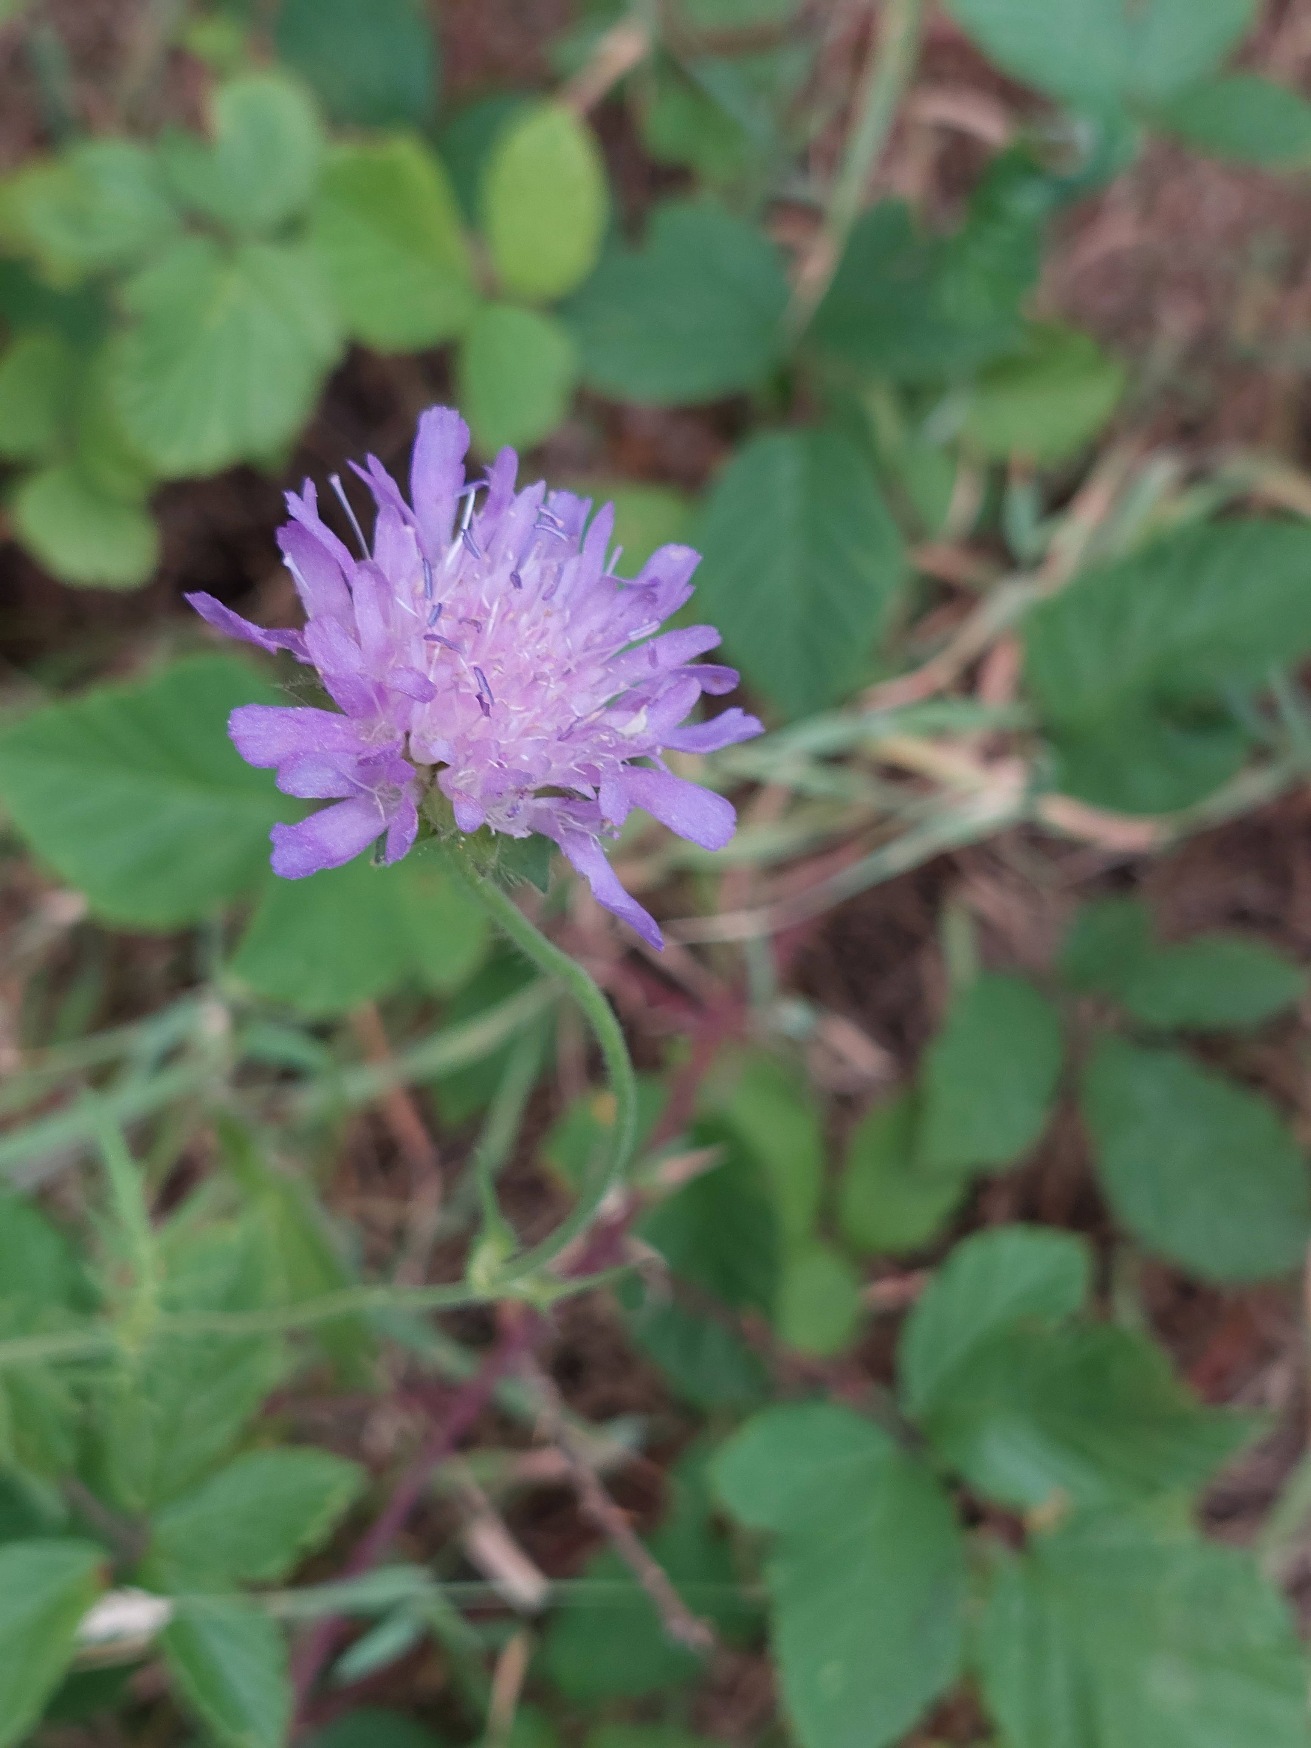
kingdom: Plantae
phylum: Tracheophyta
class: Magnoliopsida
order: Dipsacales
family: Caprifoliaceae
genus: Knautia
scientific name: Knautia arvensis
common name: Blåhat
